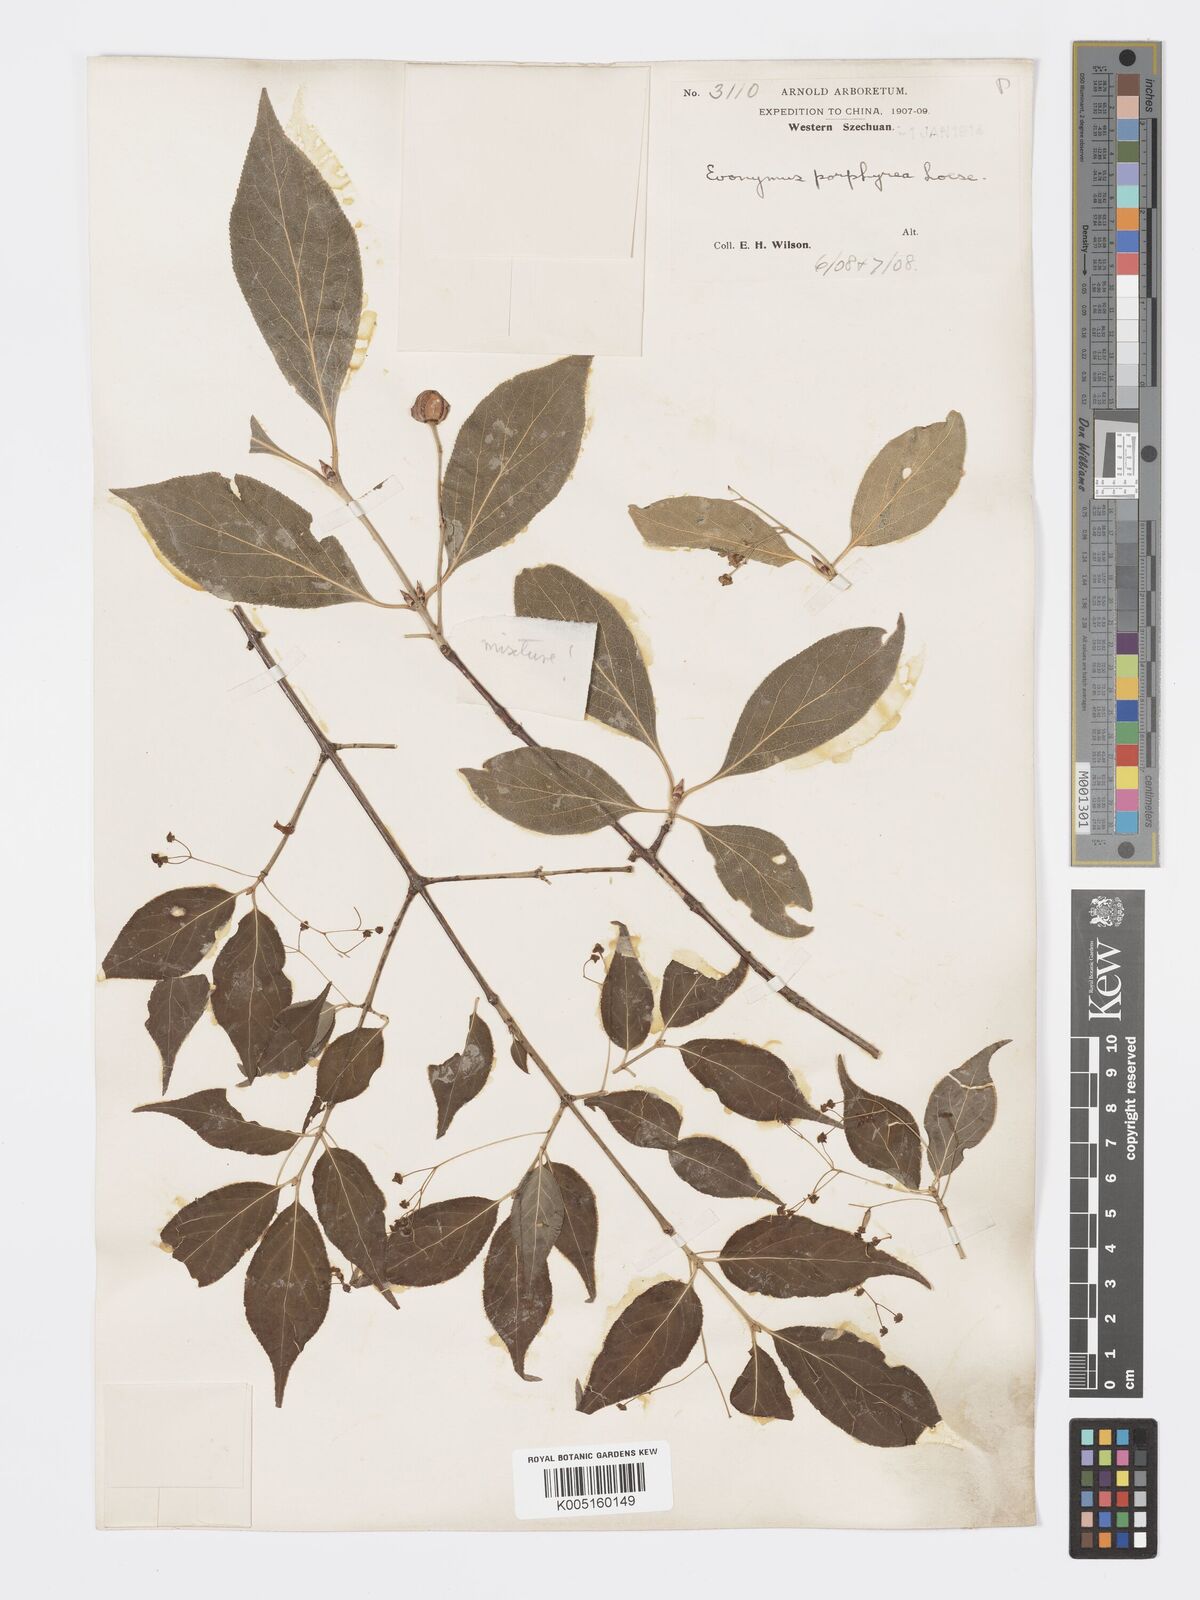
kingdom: Plantae
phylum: Tracheophyta
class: Magnoliopsida
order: Celastrales
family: Celastraceae
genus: Euonymus
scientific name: Euonymus frigidus
